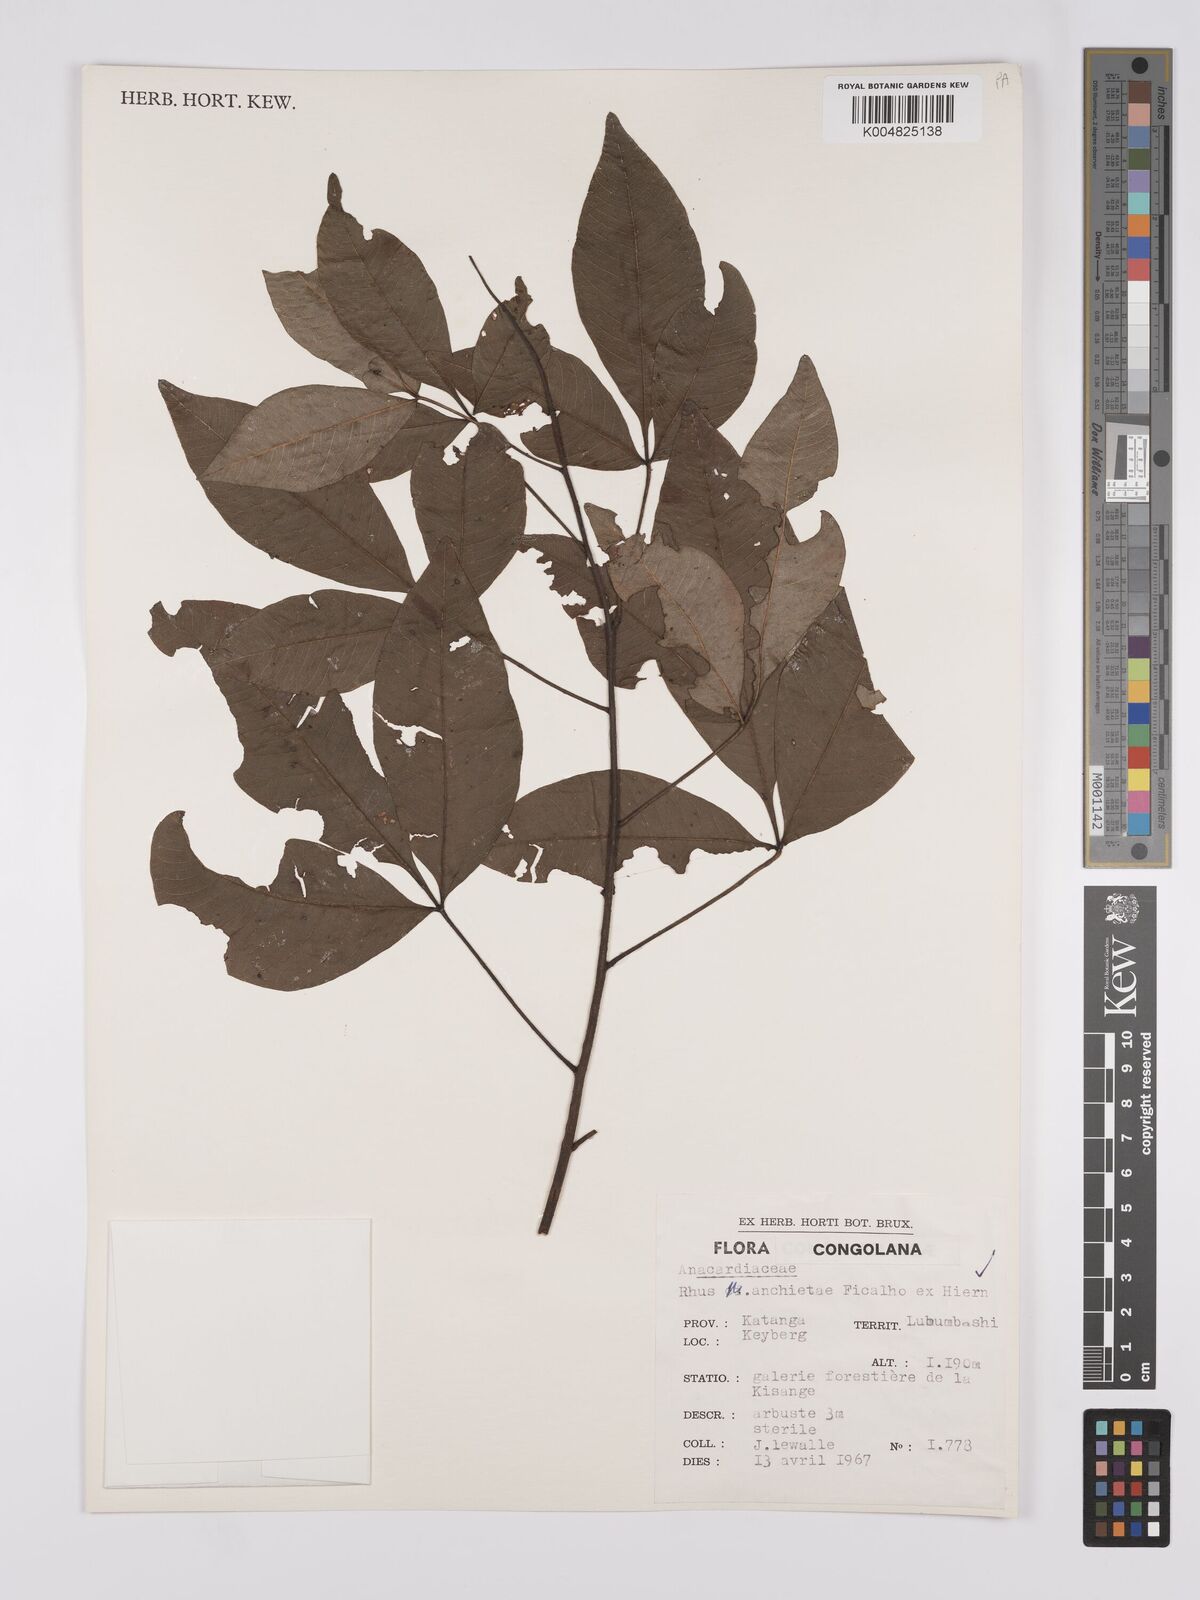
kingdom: Plantae
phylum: Tracheophyta
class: Magnoliopsida
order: Sapindales
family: Anacardiaceae
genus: Searsia
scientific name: Searsia anchietae
